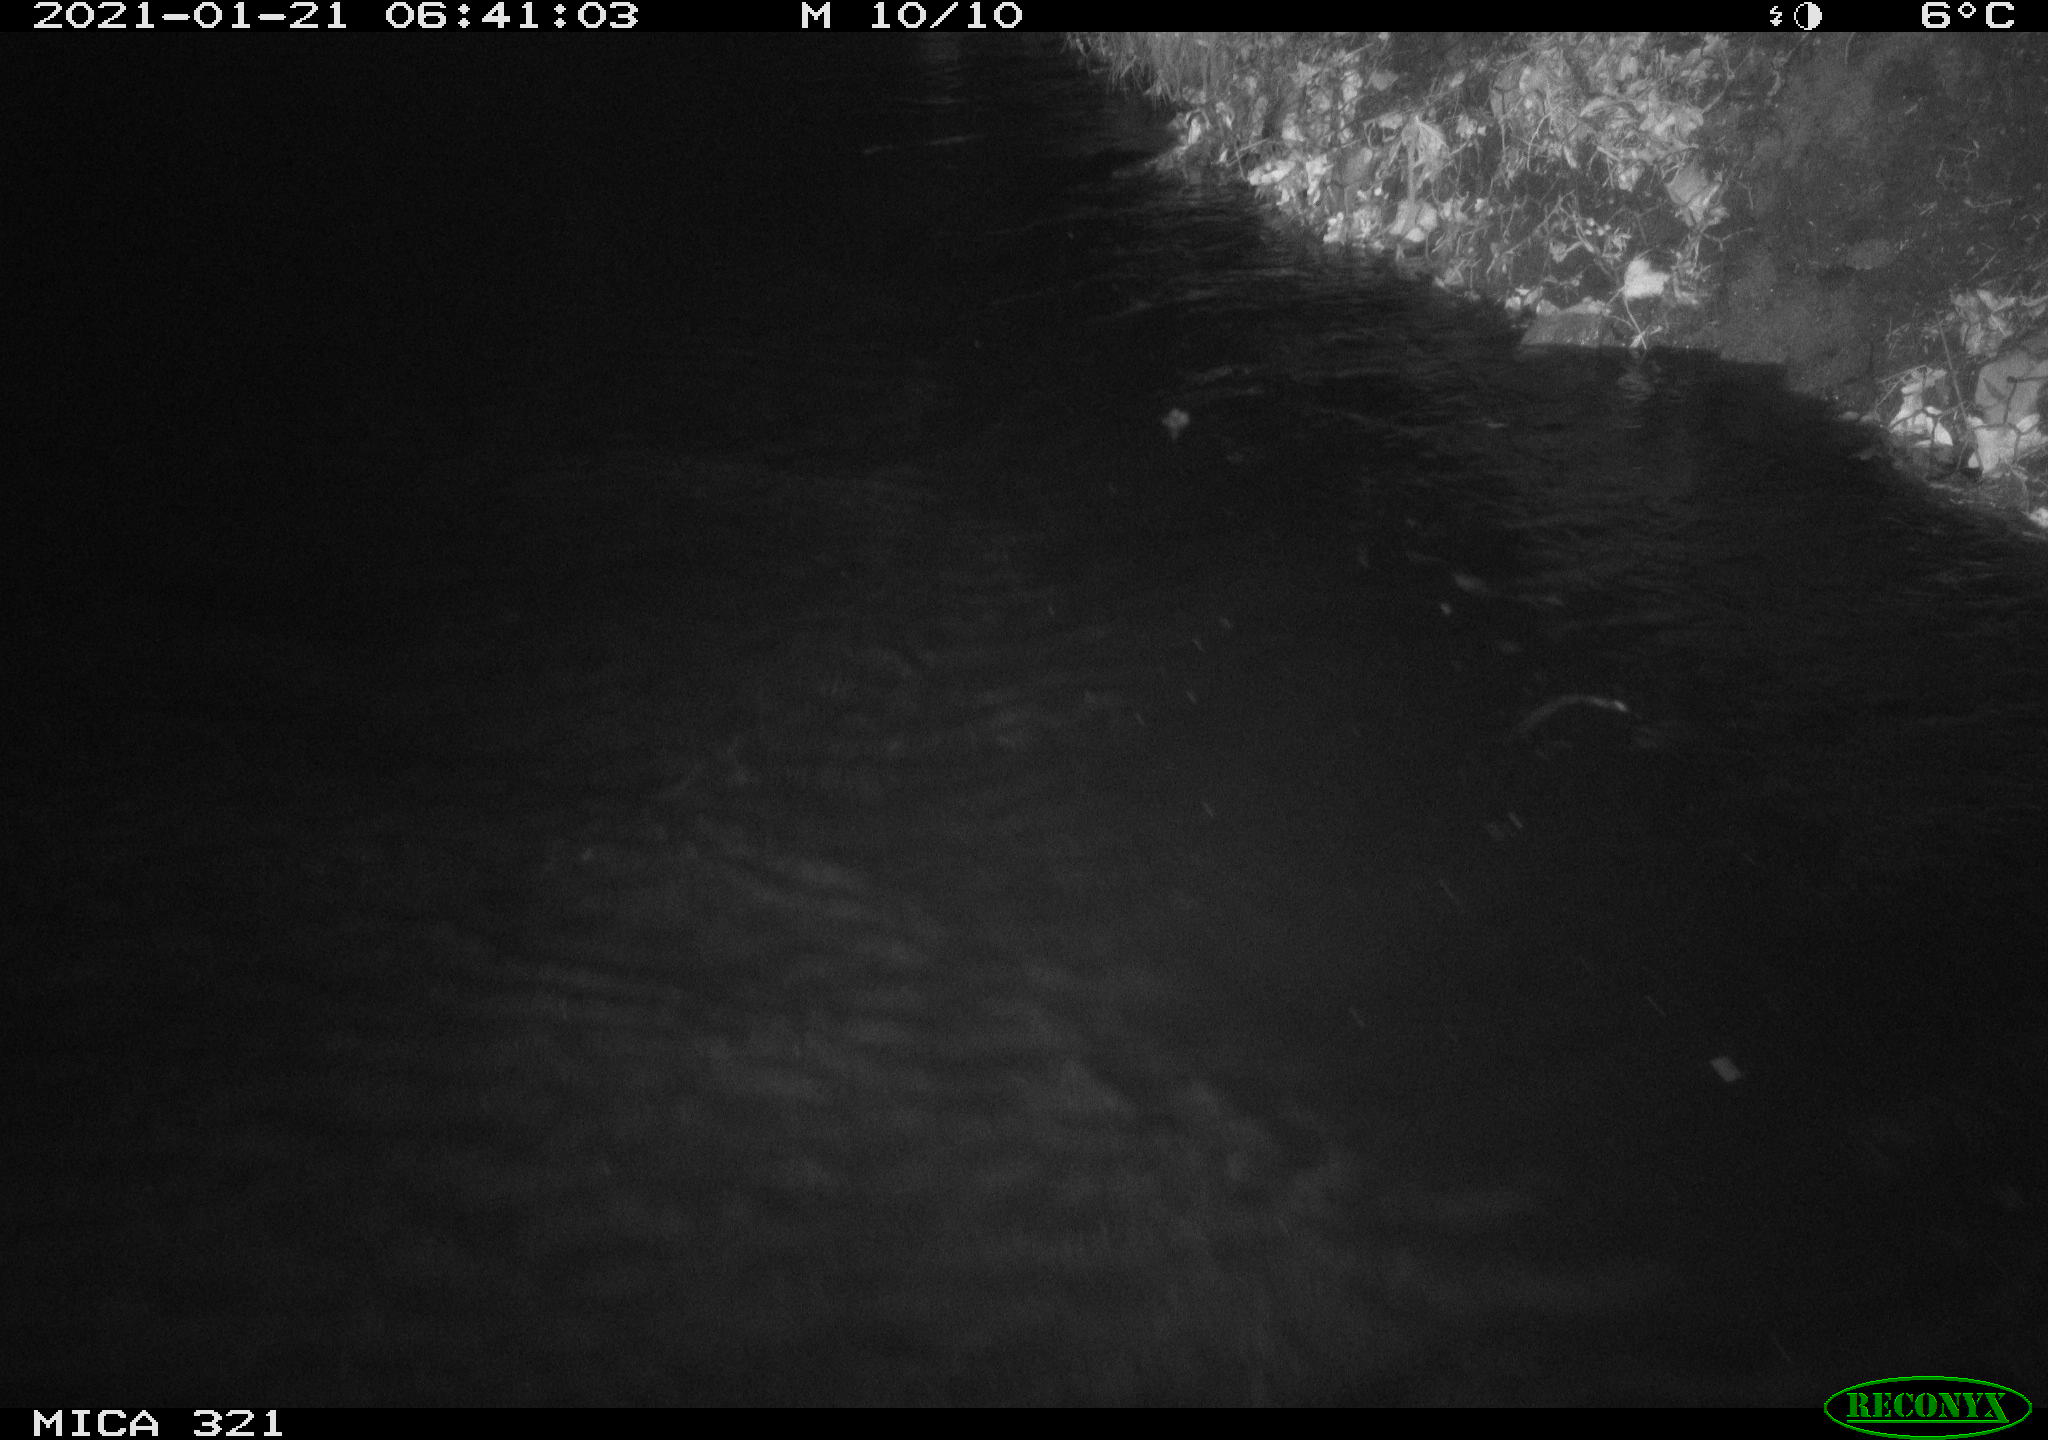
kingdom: Animalia
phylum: Chordata
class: Mammalia
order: Rodentia
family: Muridae
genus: Rattus
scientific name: Rattus norvegicus
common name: Brown rat
